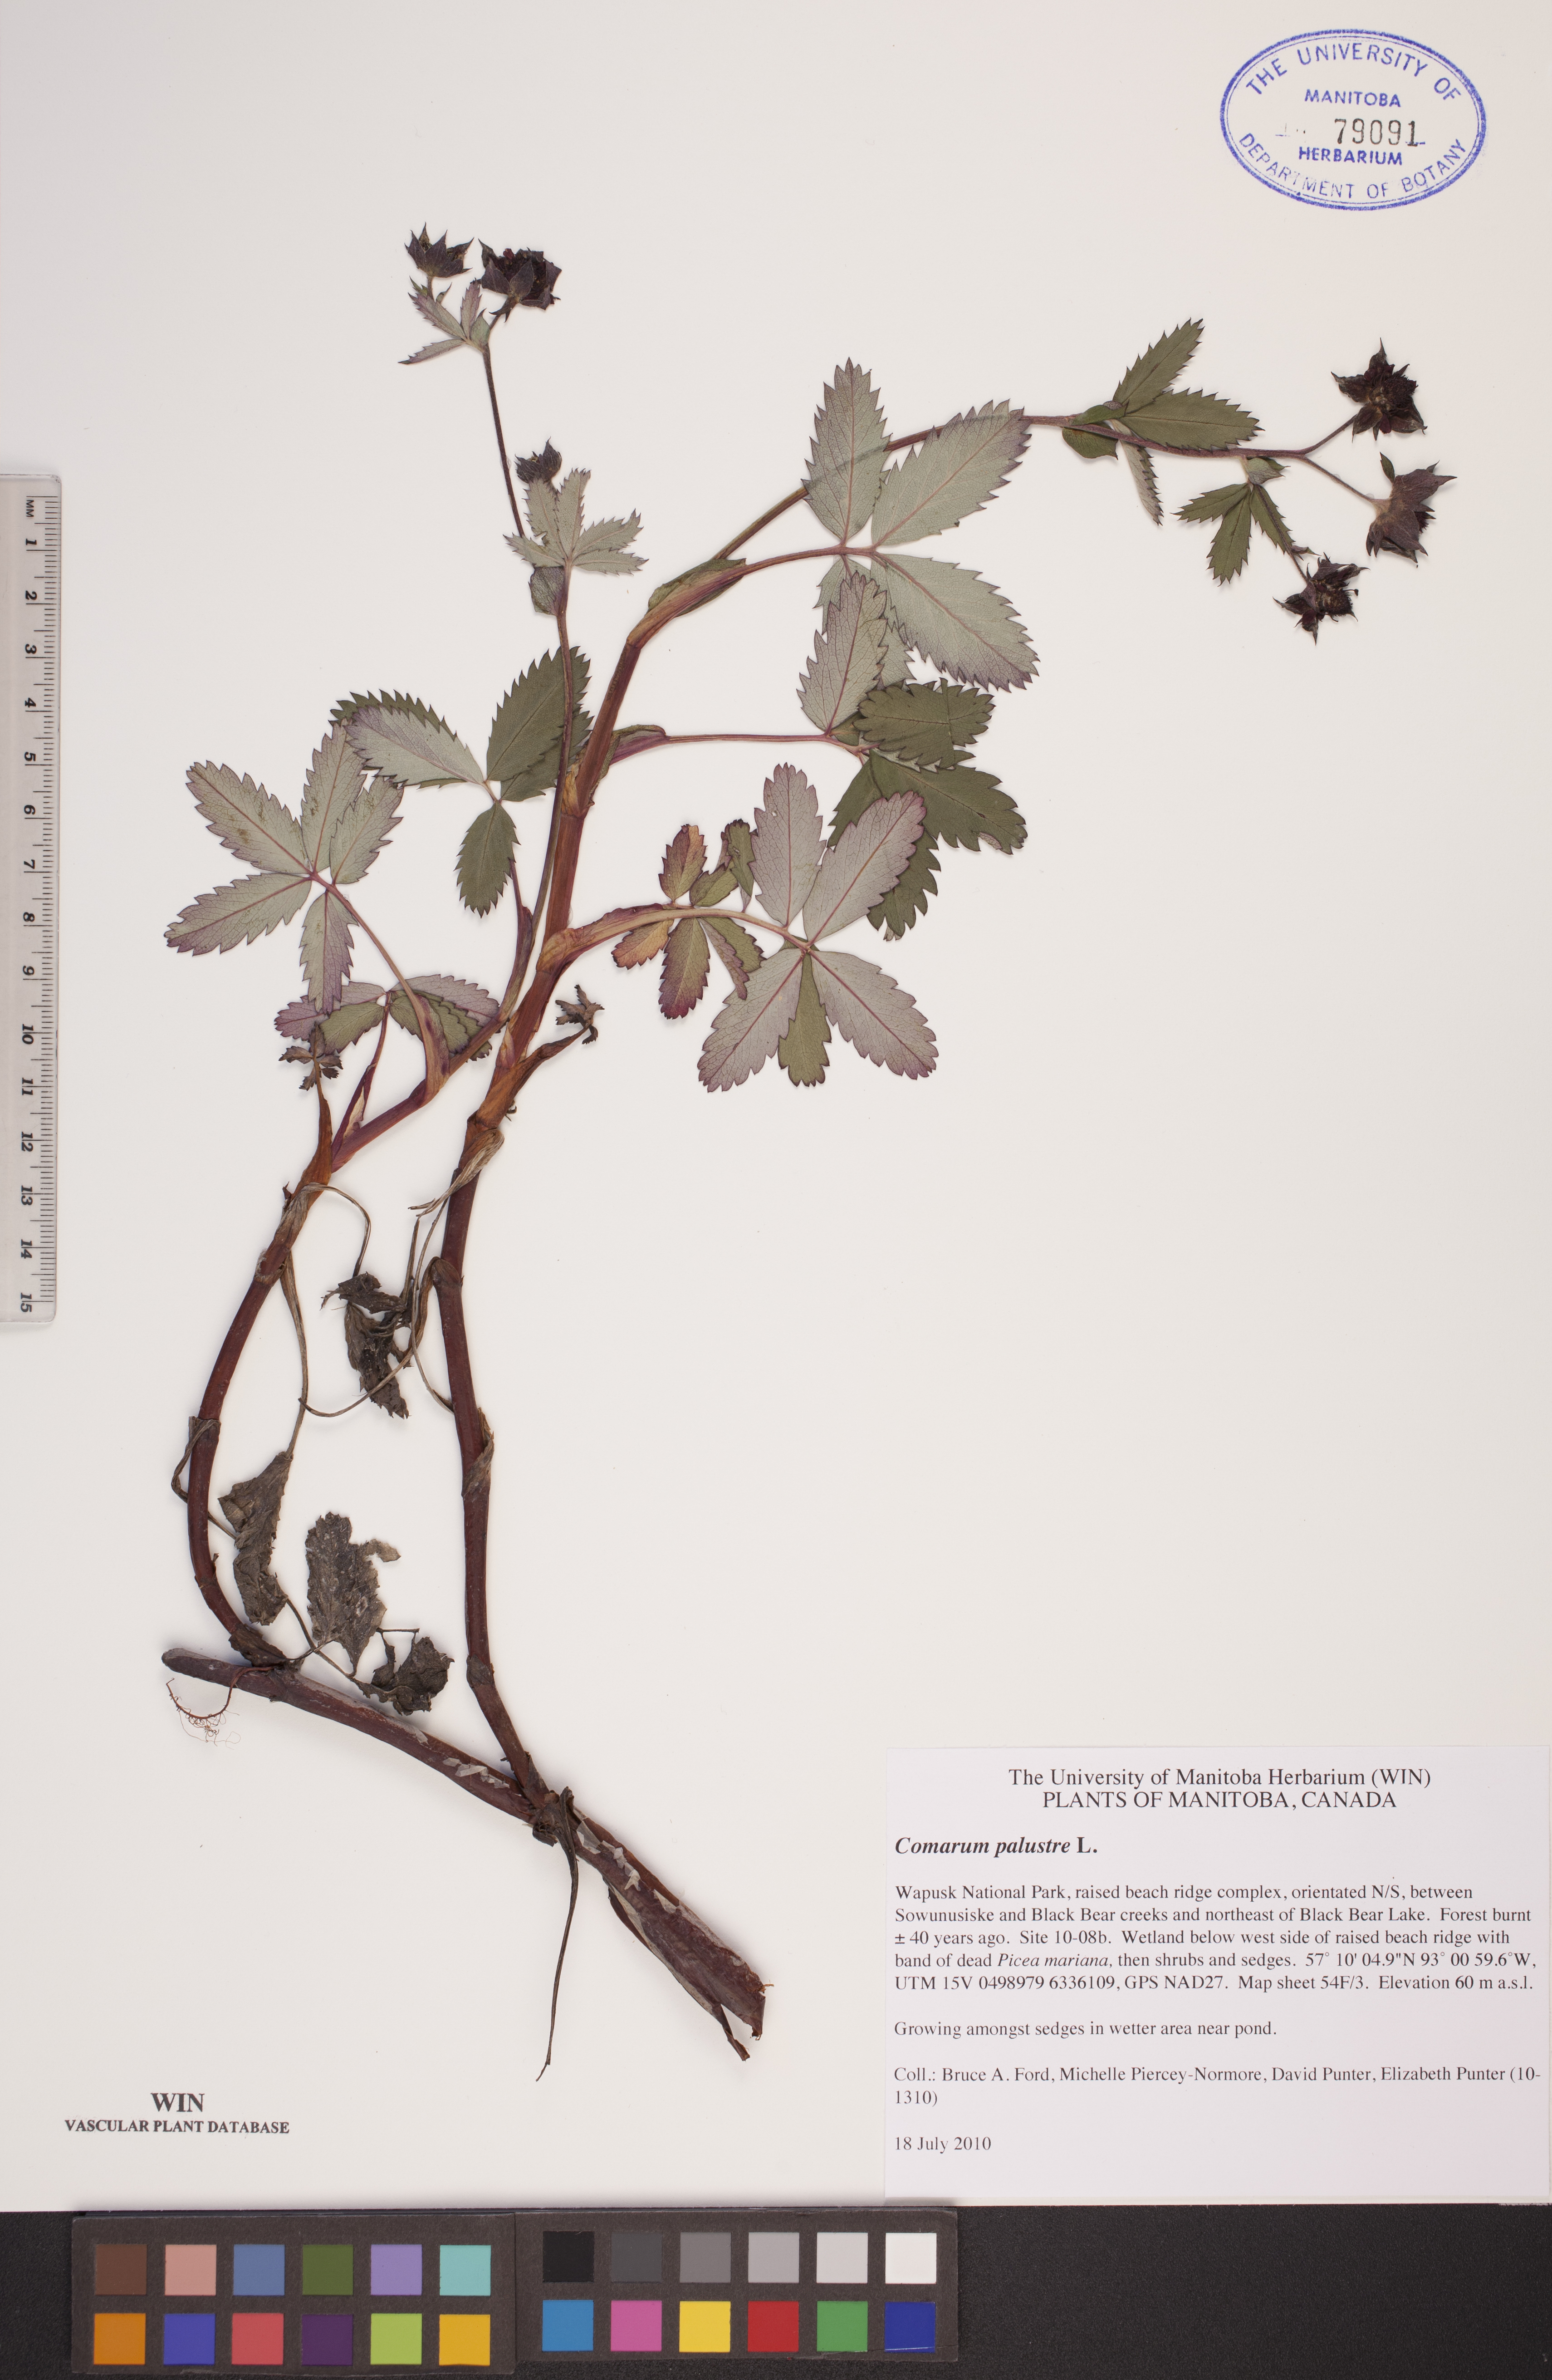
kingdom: Plantae
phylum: Tracheophyta
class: Magnoliopsida
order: Rosales
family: Rosaceae
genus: Comarum
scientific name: Comarum palustre
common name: Marsh cinquefoil
